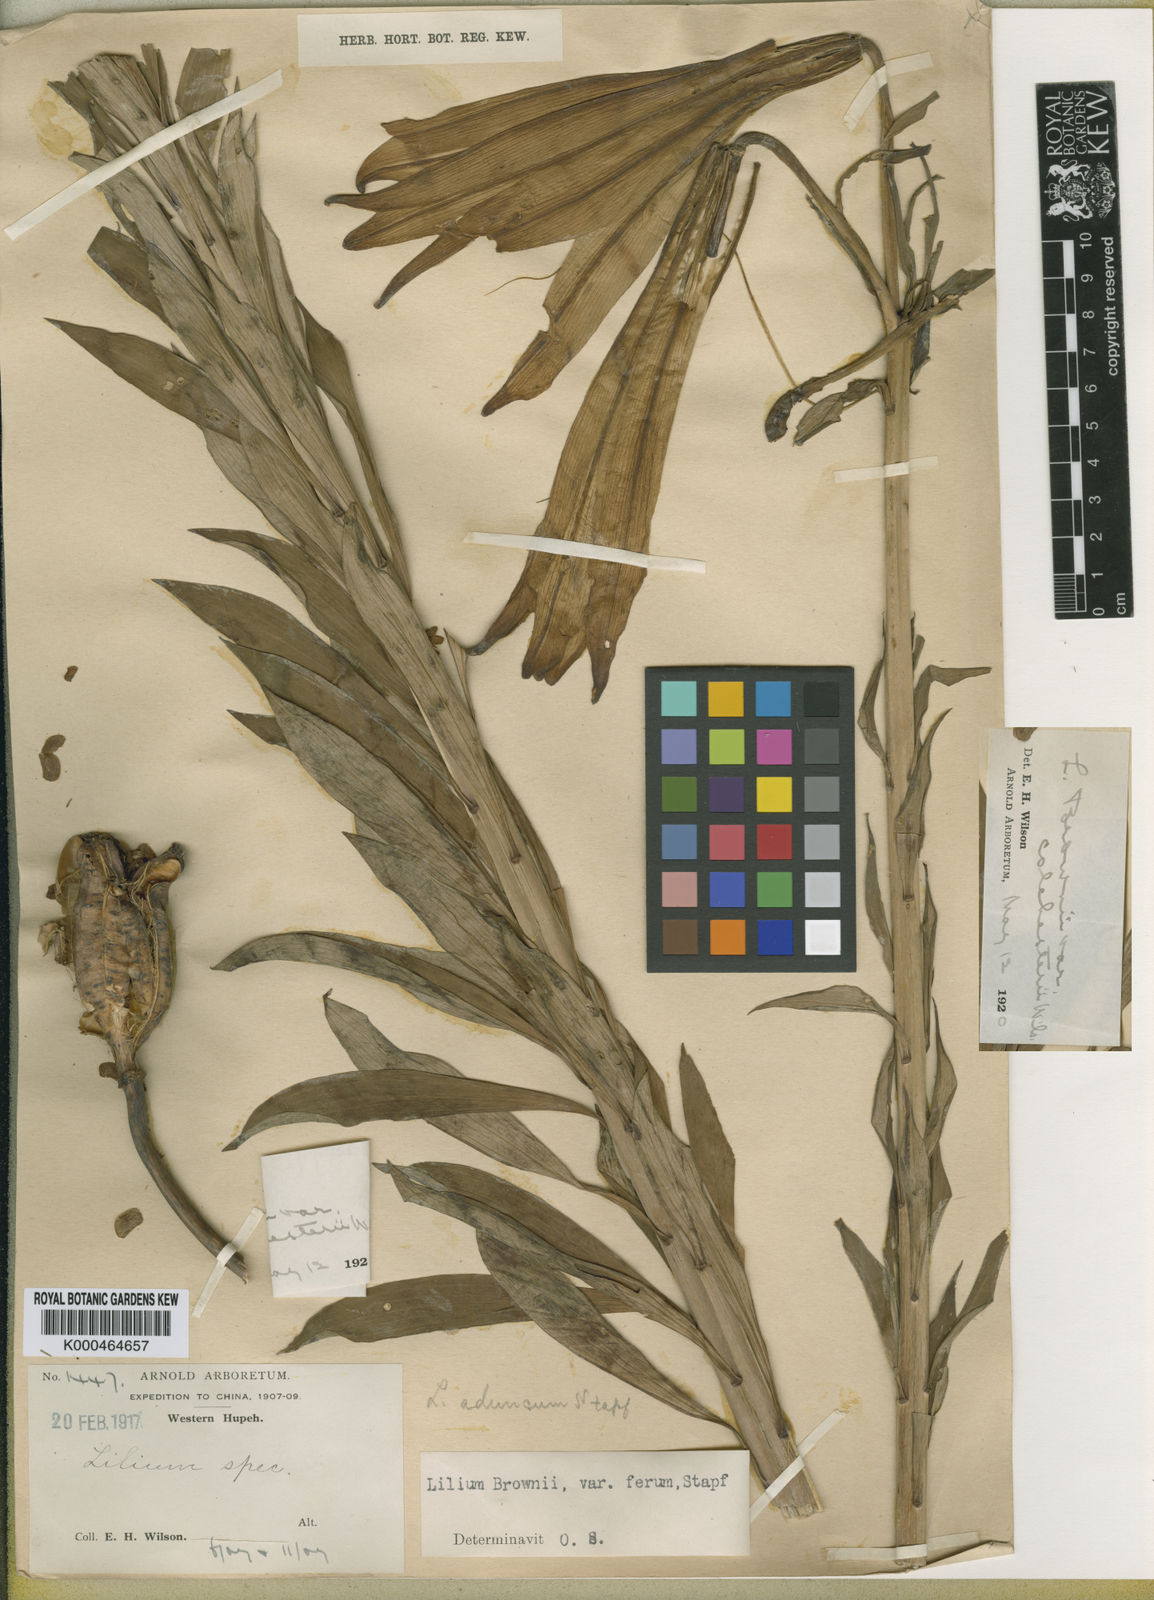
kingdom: Plantae
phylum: Tracheophyta
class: Liliopsida
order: Liliales
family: Liliaceae
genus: Lilium
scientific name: Lilium
